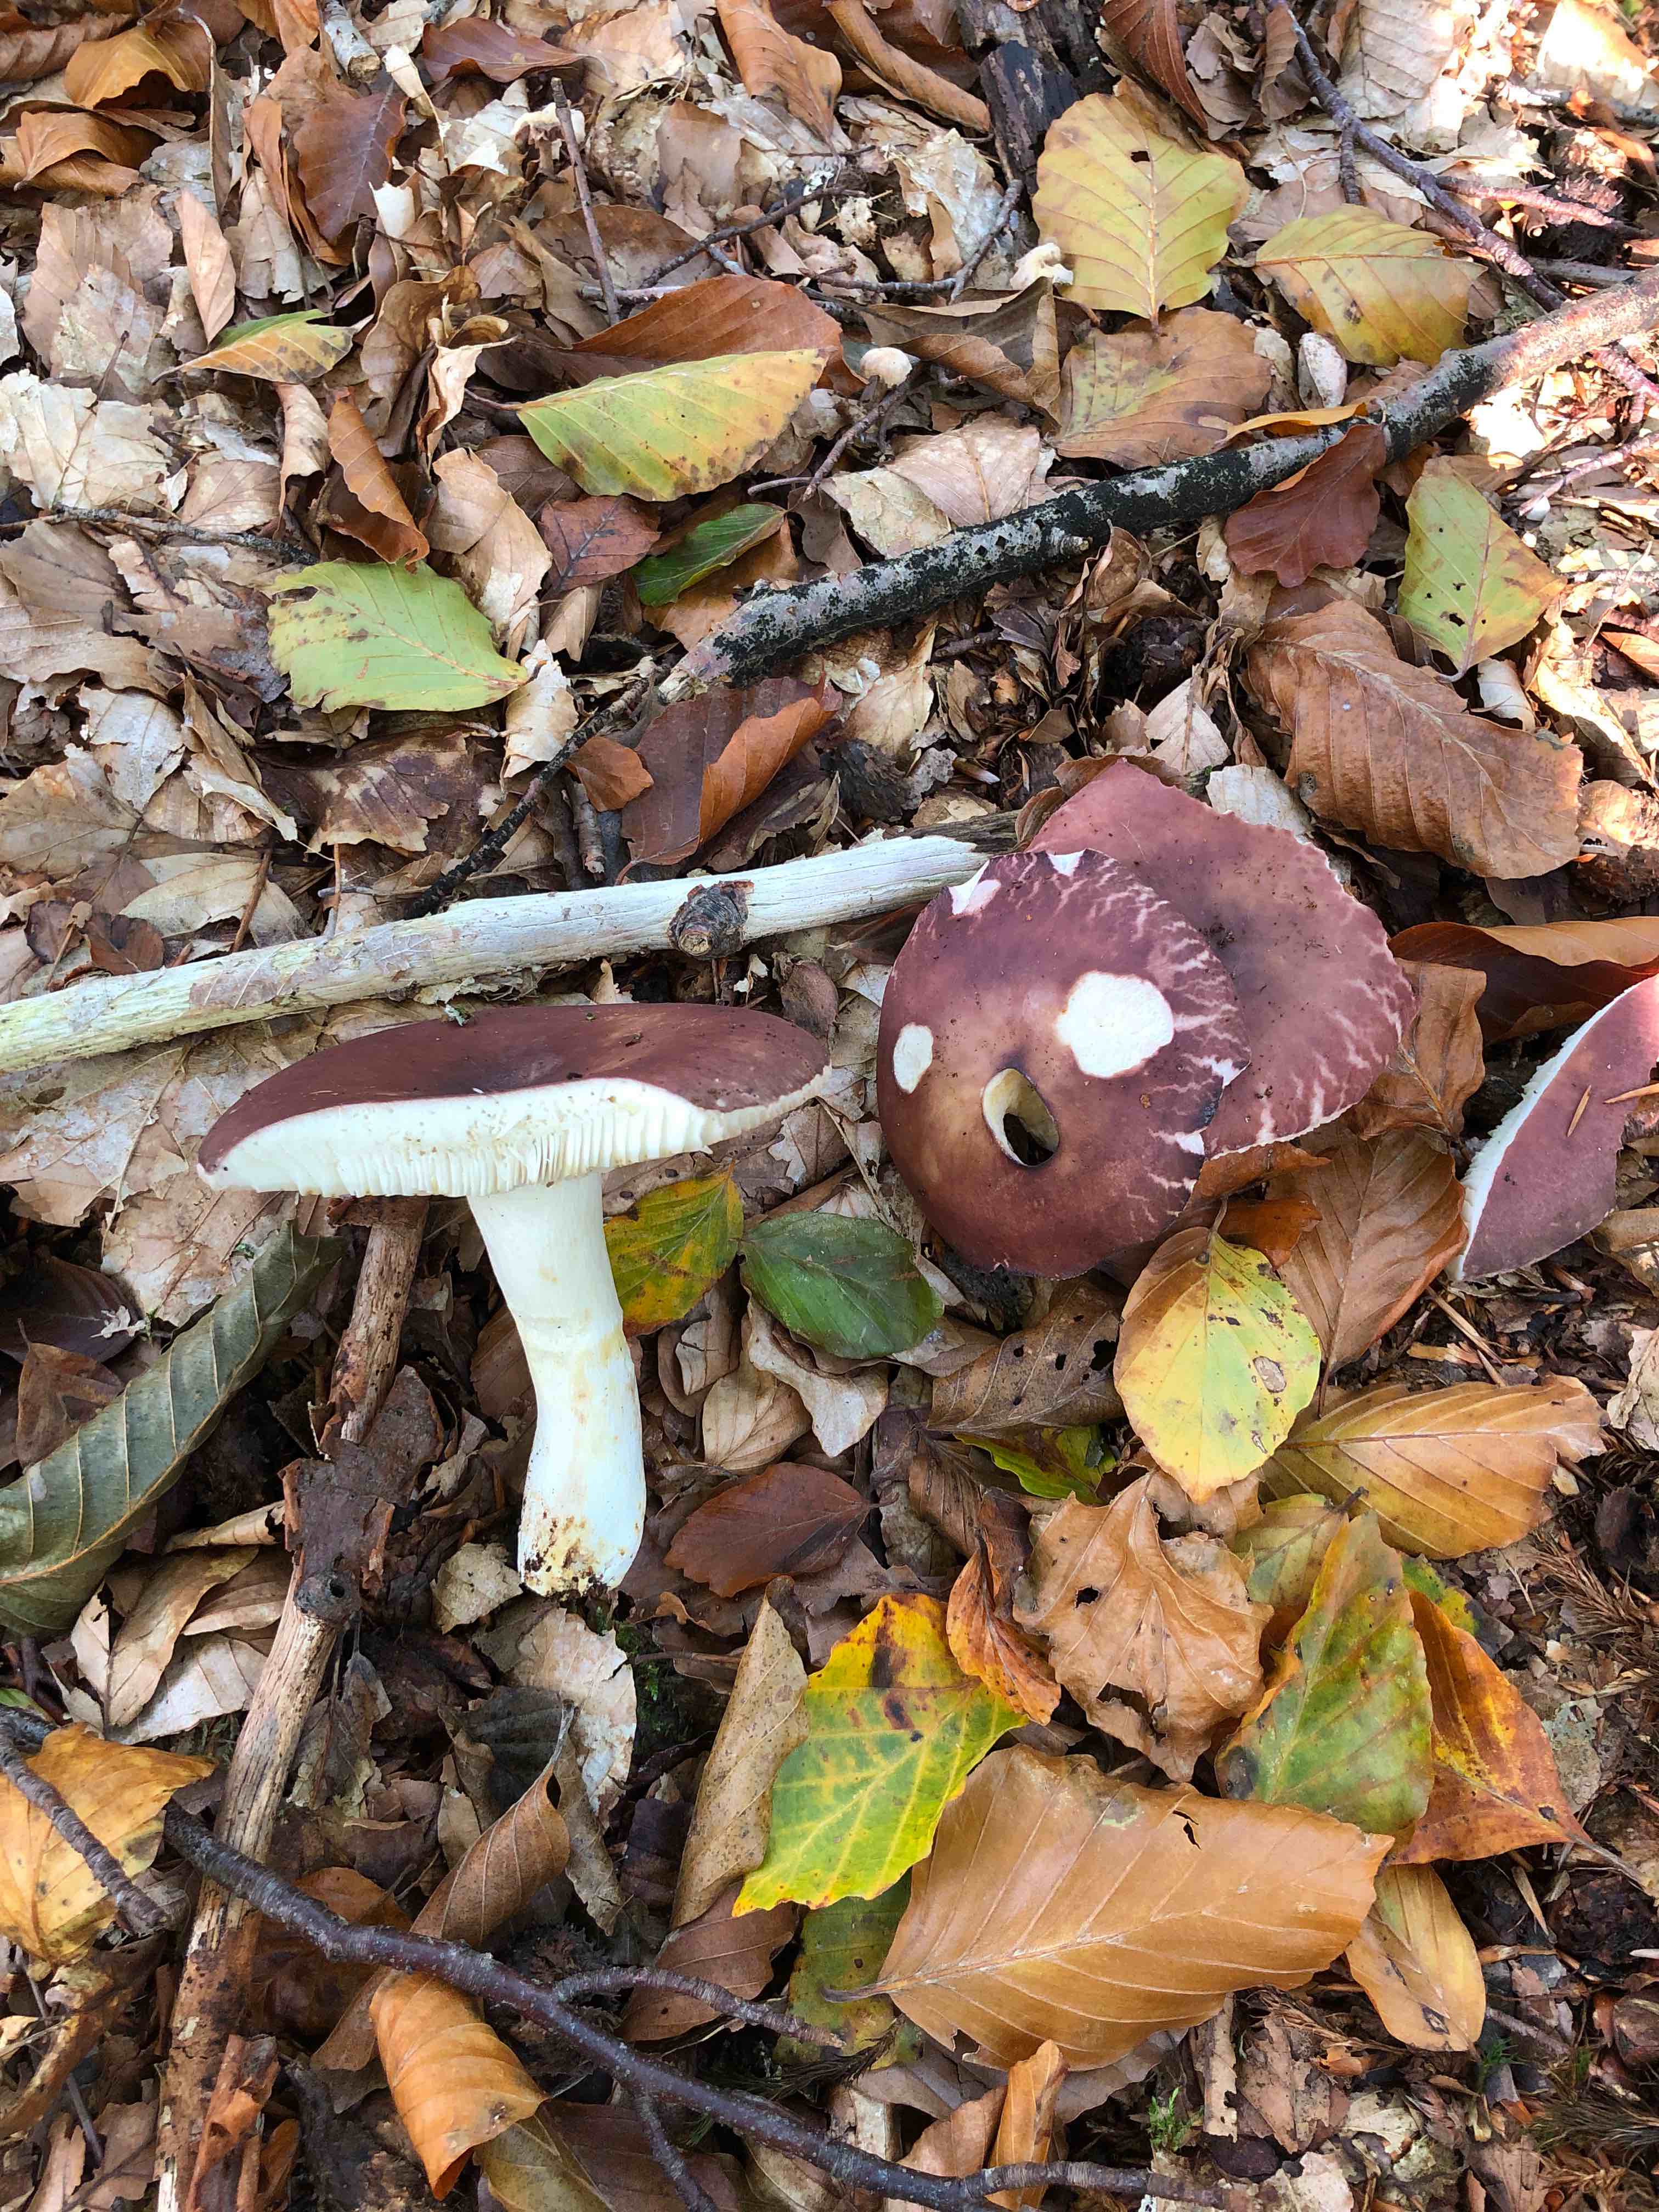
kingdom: Fungi
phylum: Basidiomycota
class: Agaricomycetes
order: Russulales
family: Russulaceae
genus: Russula
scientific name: Russula vesca
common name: spiselig skørhat
